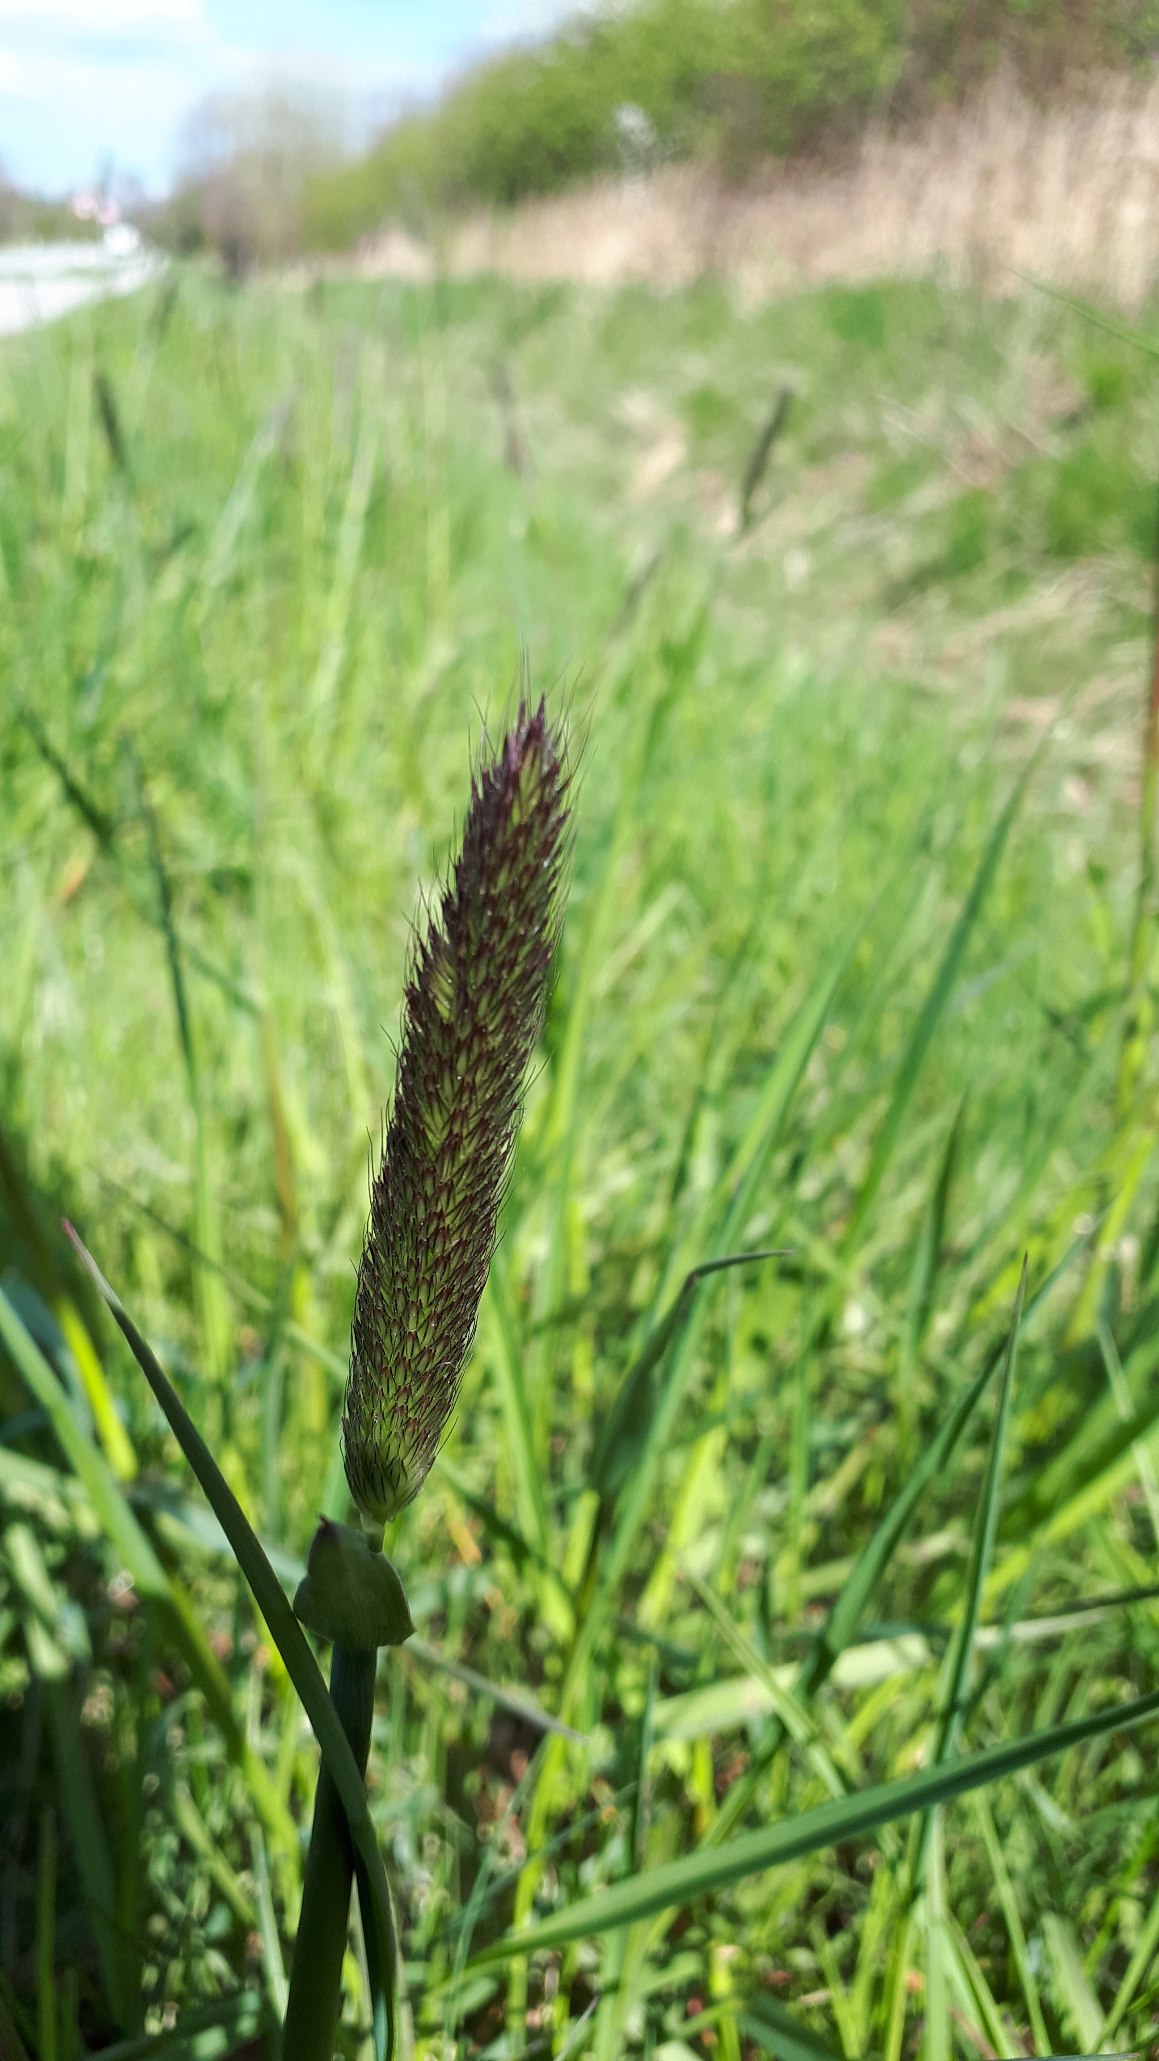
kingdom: Plantae
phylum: Tracheophyta
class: Liliopsida
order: Poales
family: Poaceae
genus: Alopecurus
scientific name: Alopecurus pratensis
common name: Eng-rævehale
